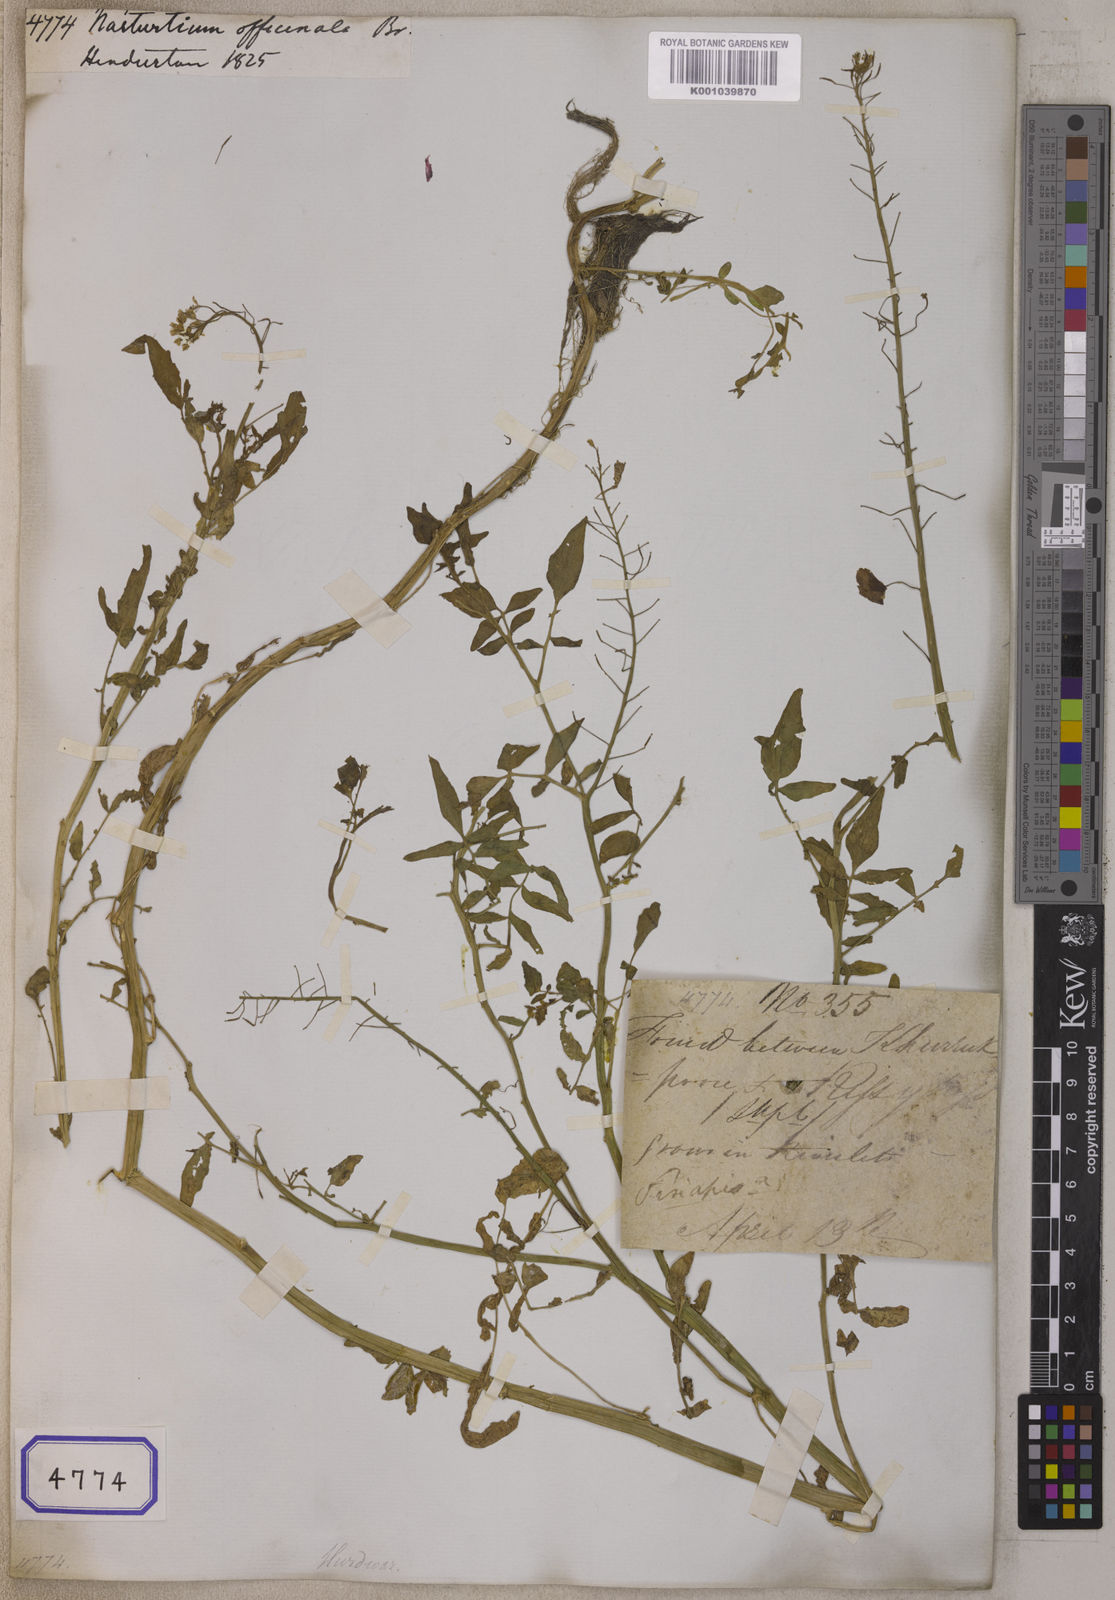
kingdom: Plantae
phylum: Tracheophyta
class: Magnoliopsida
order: Brassicales
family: Brassicaceae
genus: Nasturtium
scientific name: Nasturtium
